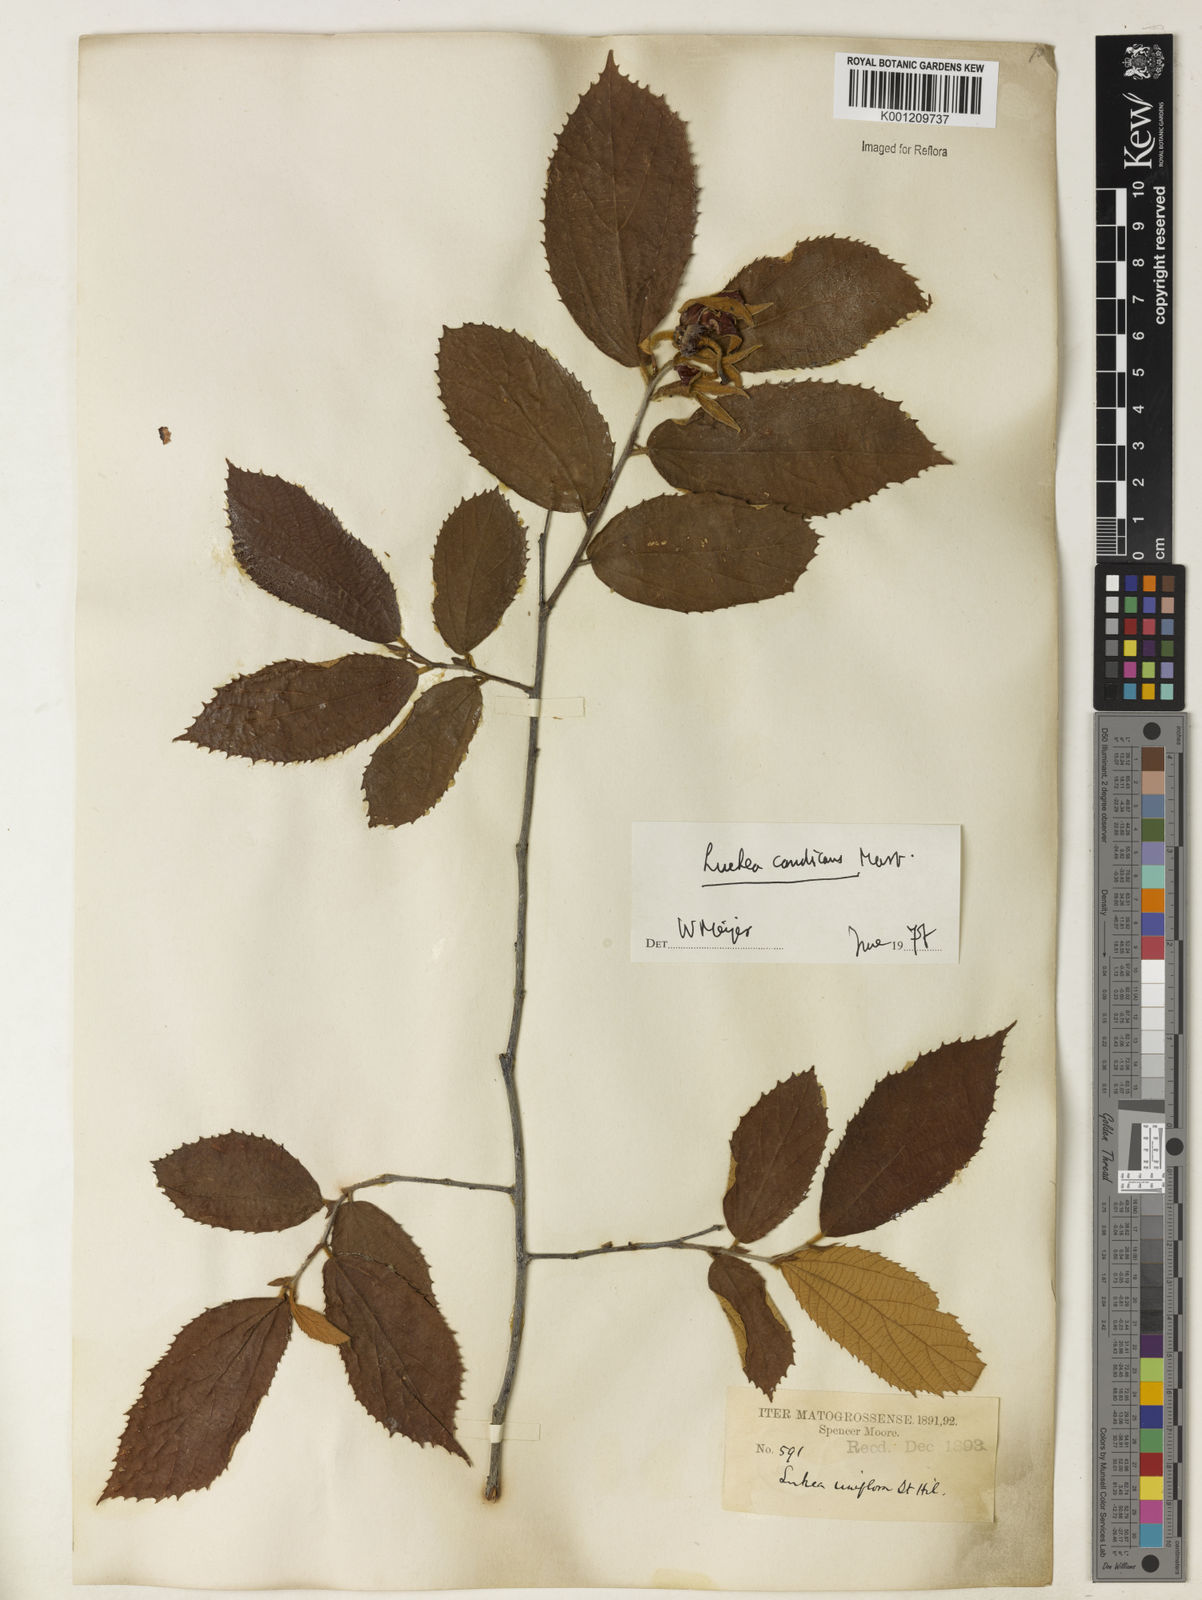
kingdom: Plantae
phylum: Tracheophyta
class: Magnoliopsida
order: Malvales
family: Malvaceae
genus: Luehea
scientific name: Luehea candicans
